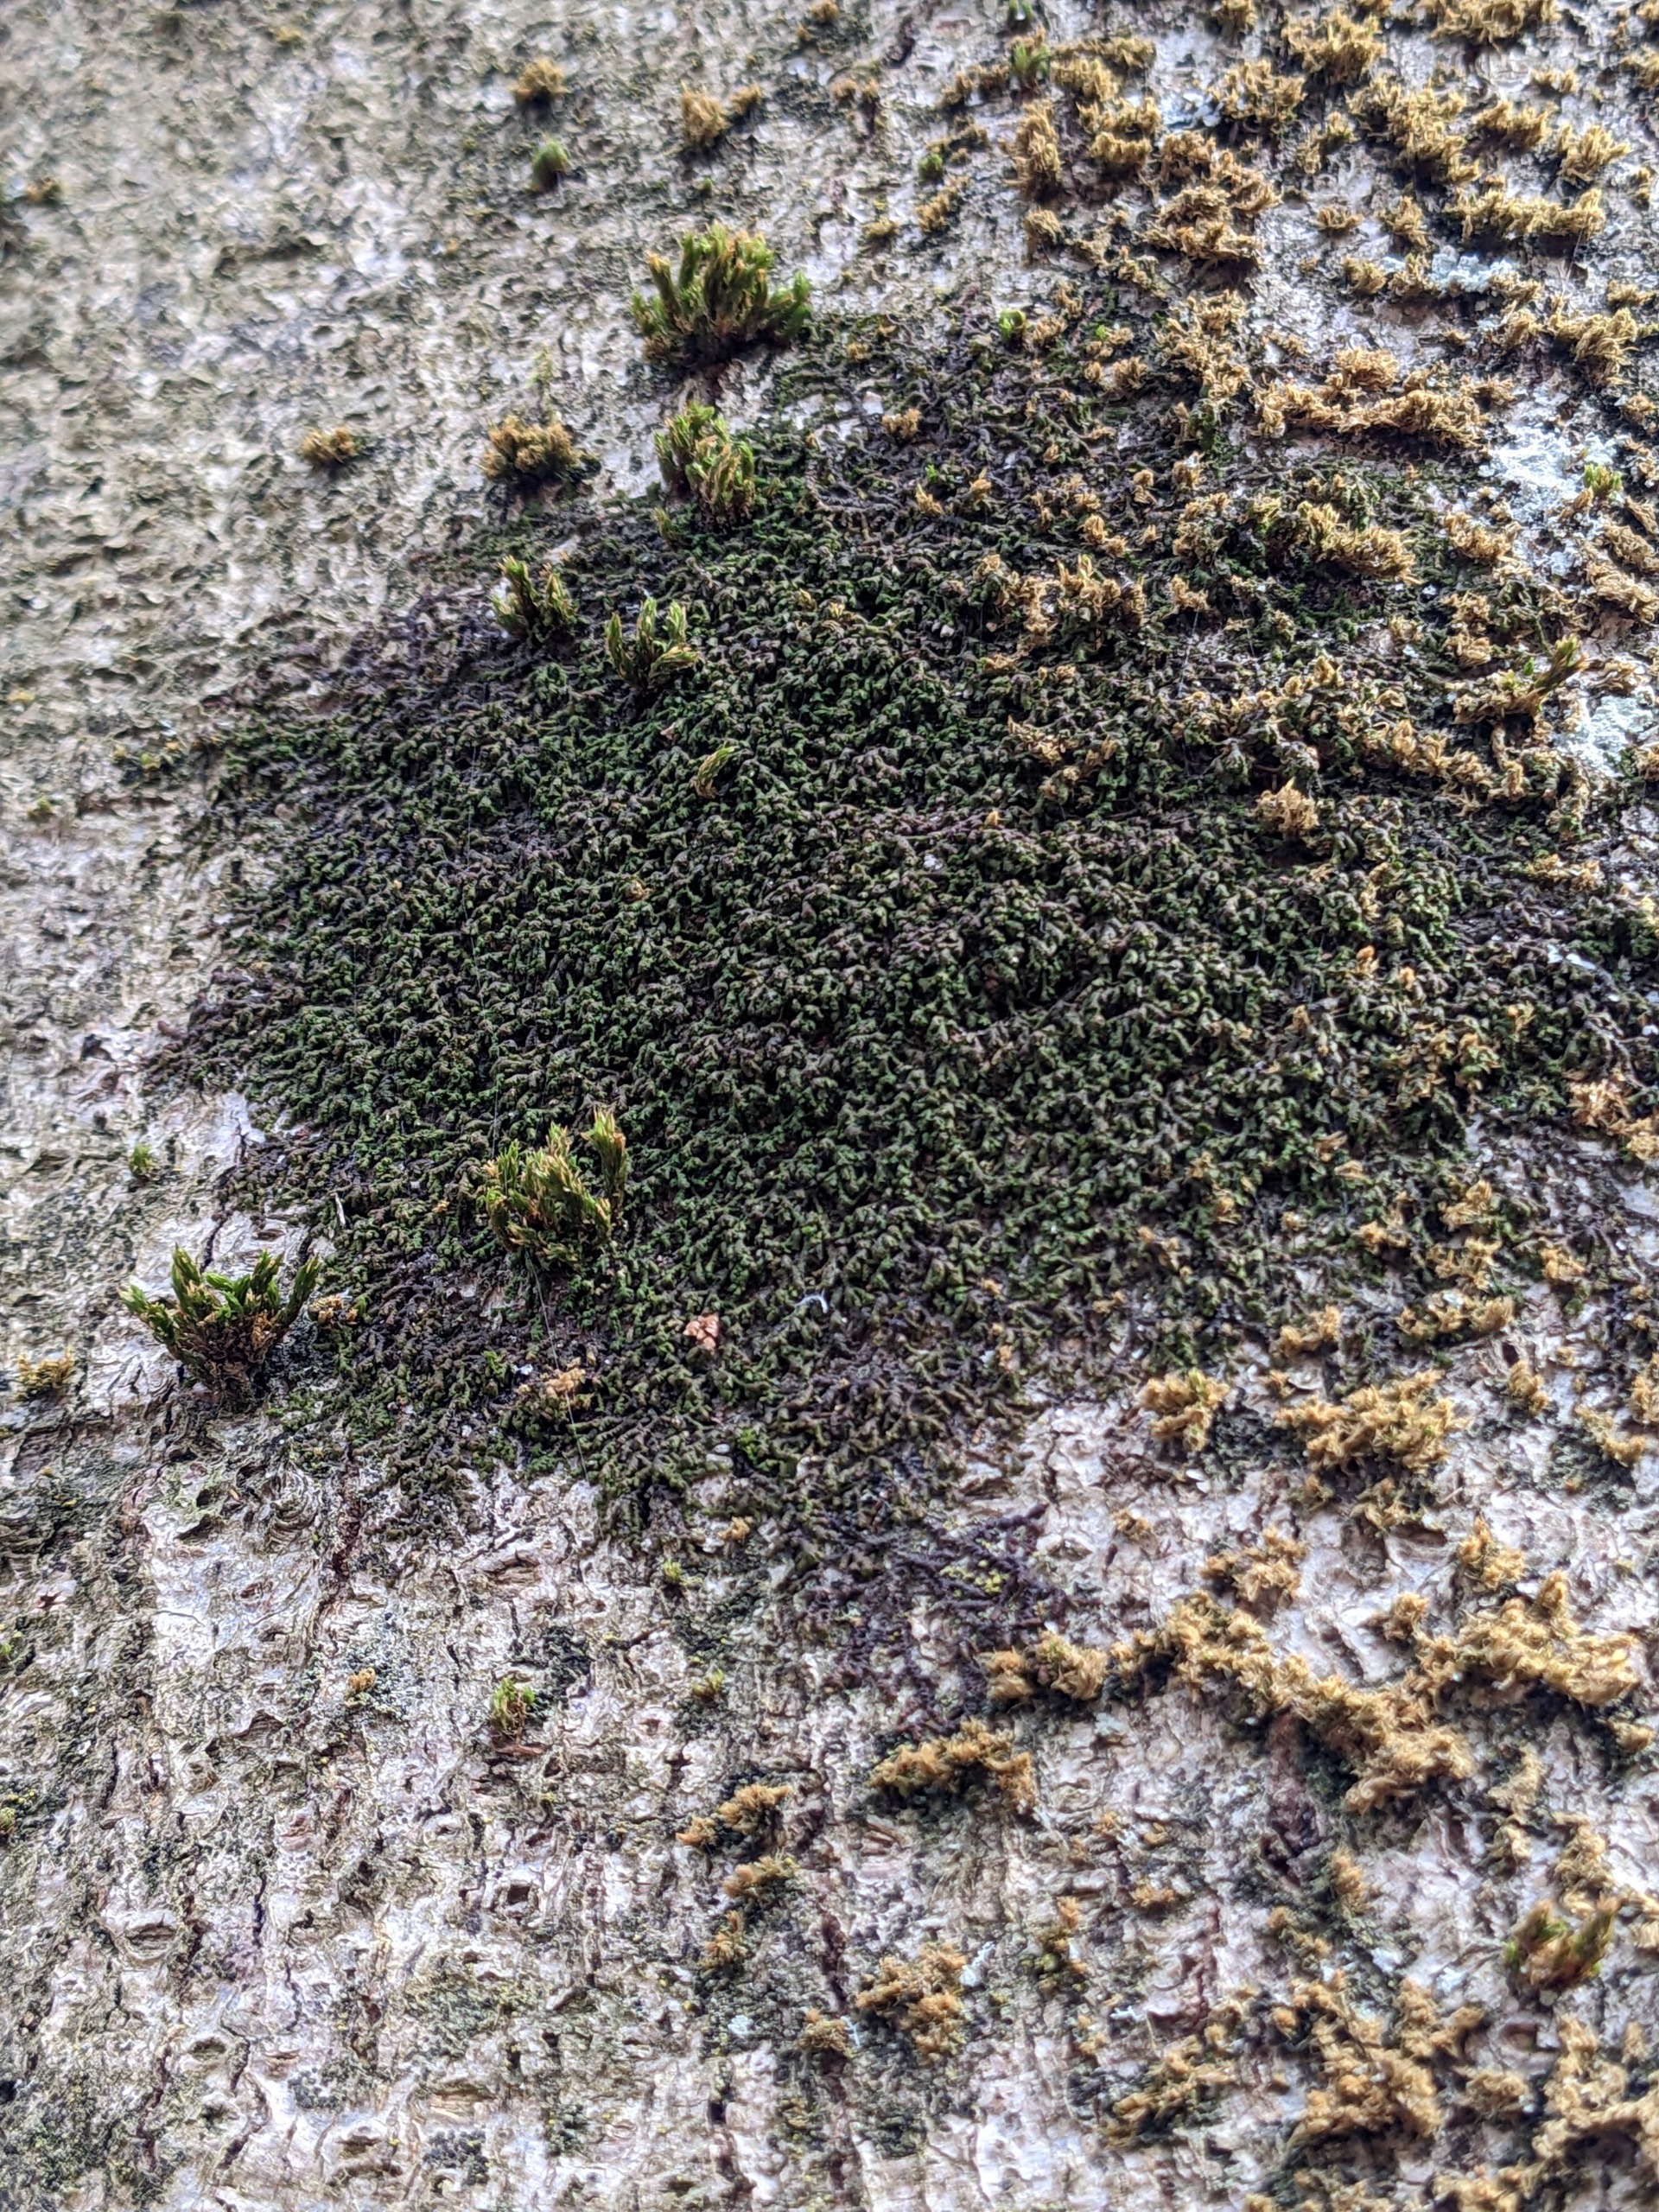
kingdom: Plantae
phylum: Marchantiophyta
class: Jungermanniopsida
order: Porellales
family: Frullaniaceae
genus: Frullania
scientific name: Frullania dilatata
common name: Mat bronzemos
